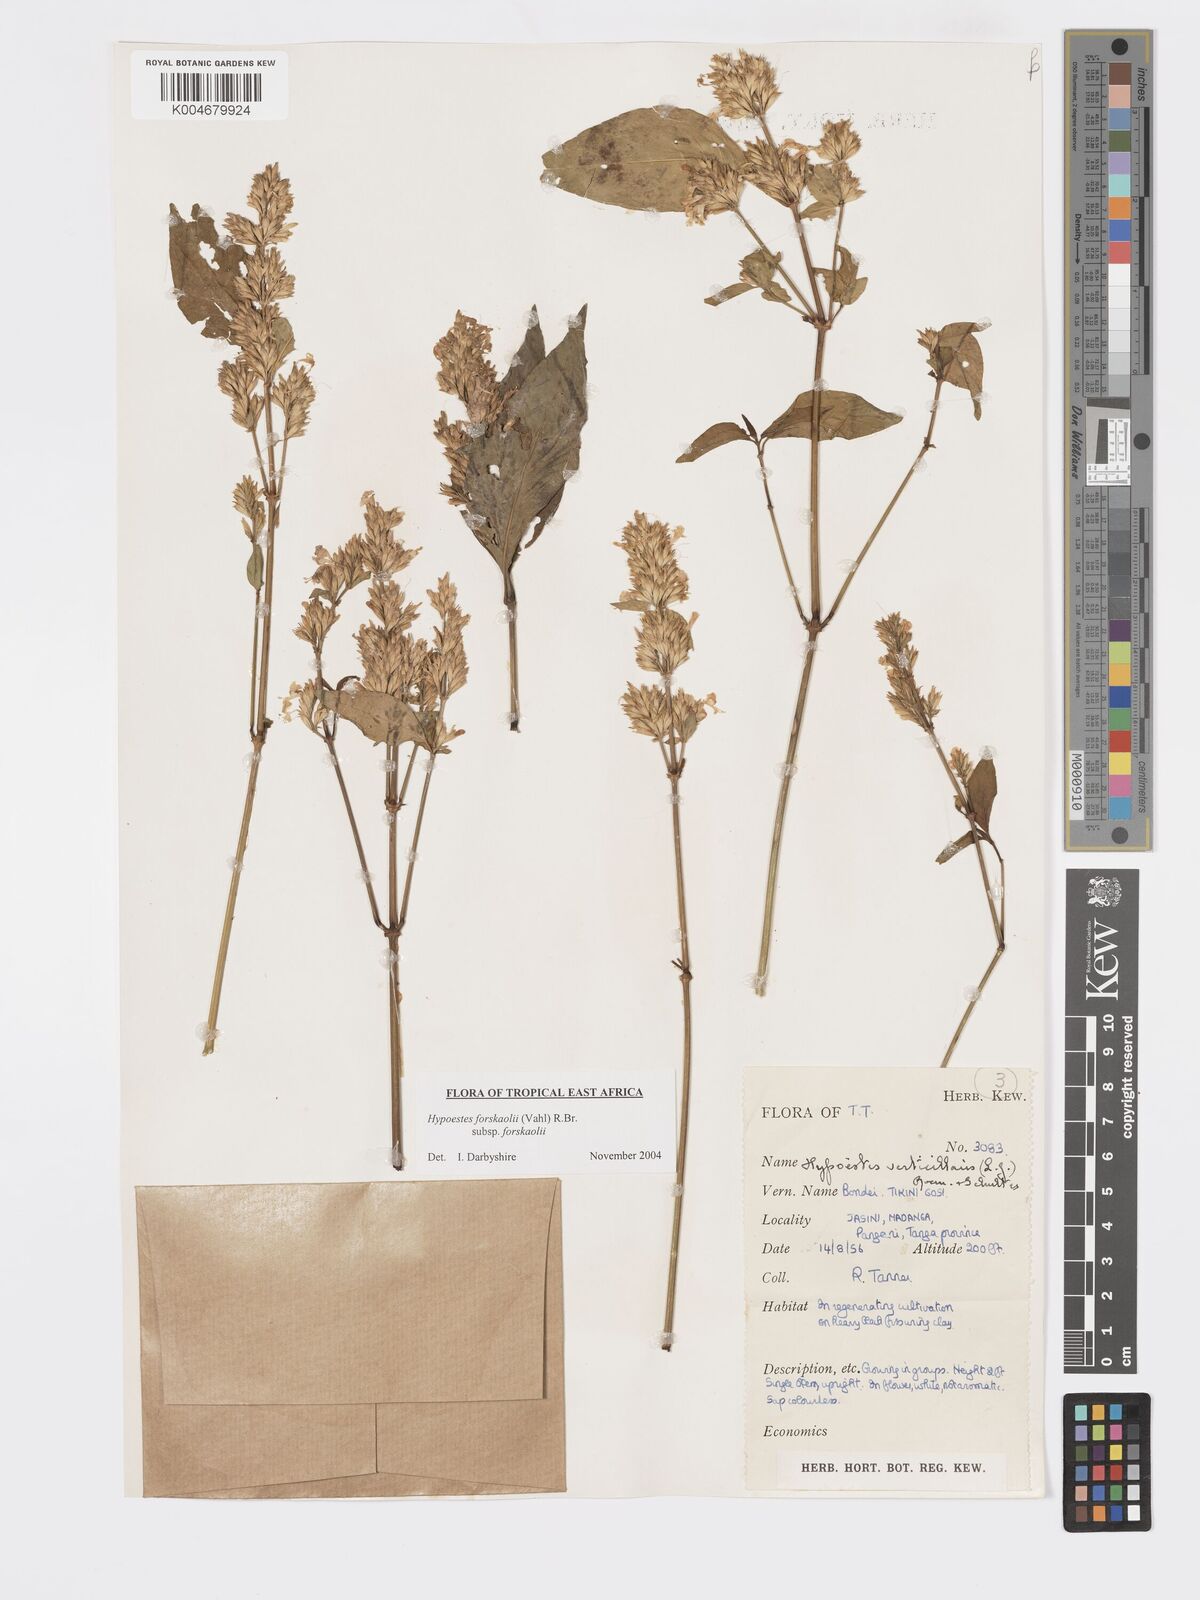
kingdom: Plantae
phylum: Tracheophyta
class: Magnoliopsida
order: Lamiales
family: Acanthaceae
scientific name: Acanthaceae
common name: Acanthaceae
